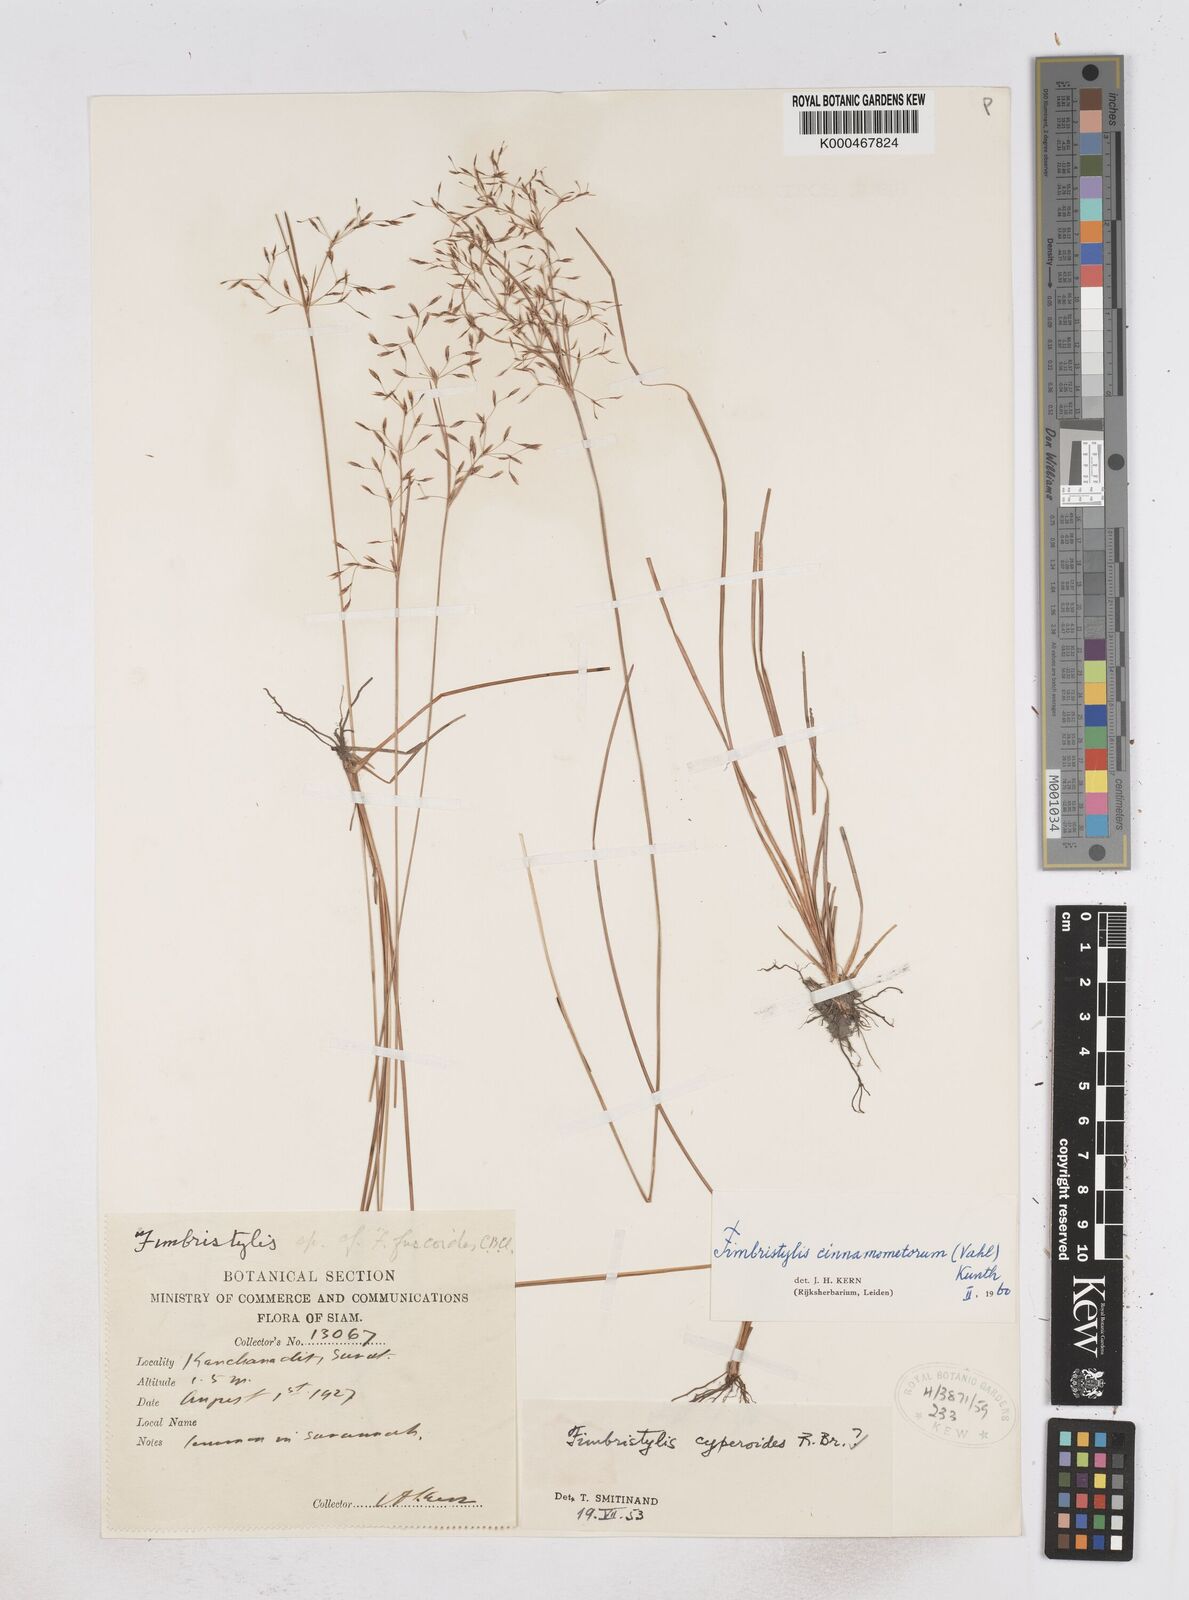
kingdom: Plantae
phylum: Tracheophyta
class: Liliopsida
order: Poales
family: Cyperaceae
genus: Fimbristylis
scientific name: Fimbristylis cinnamometorum
